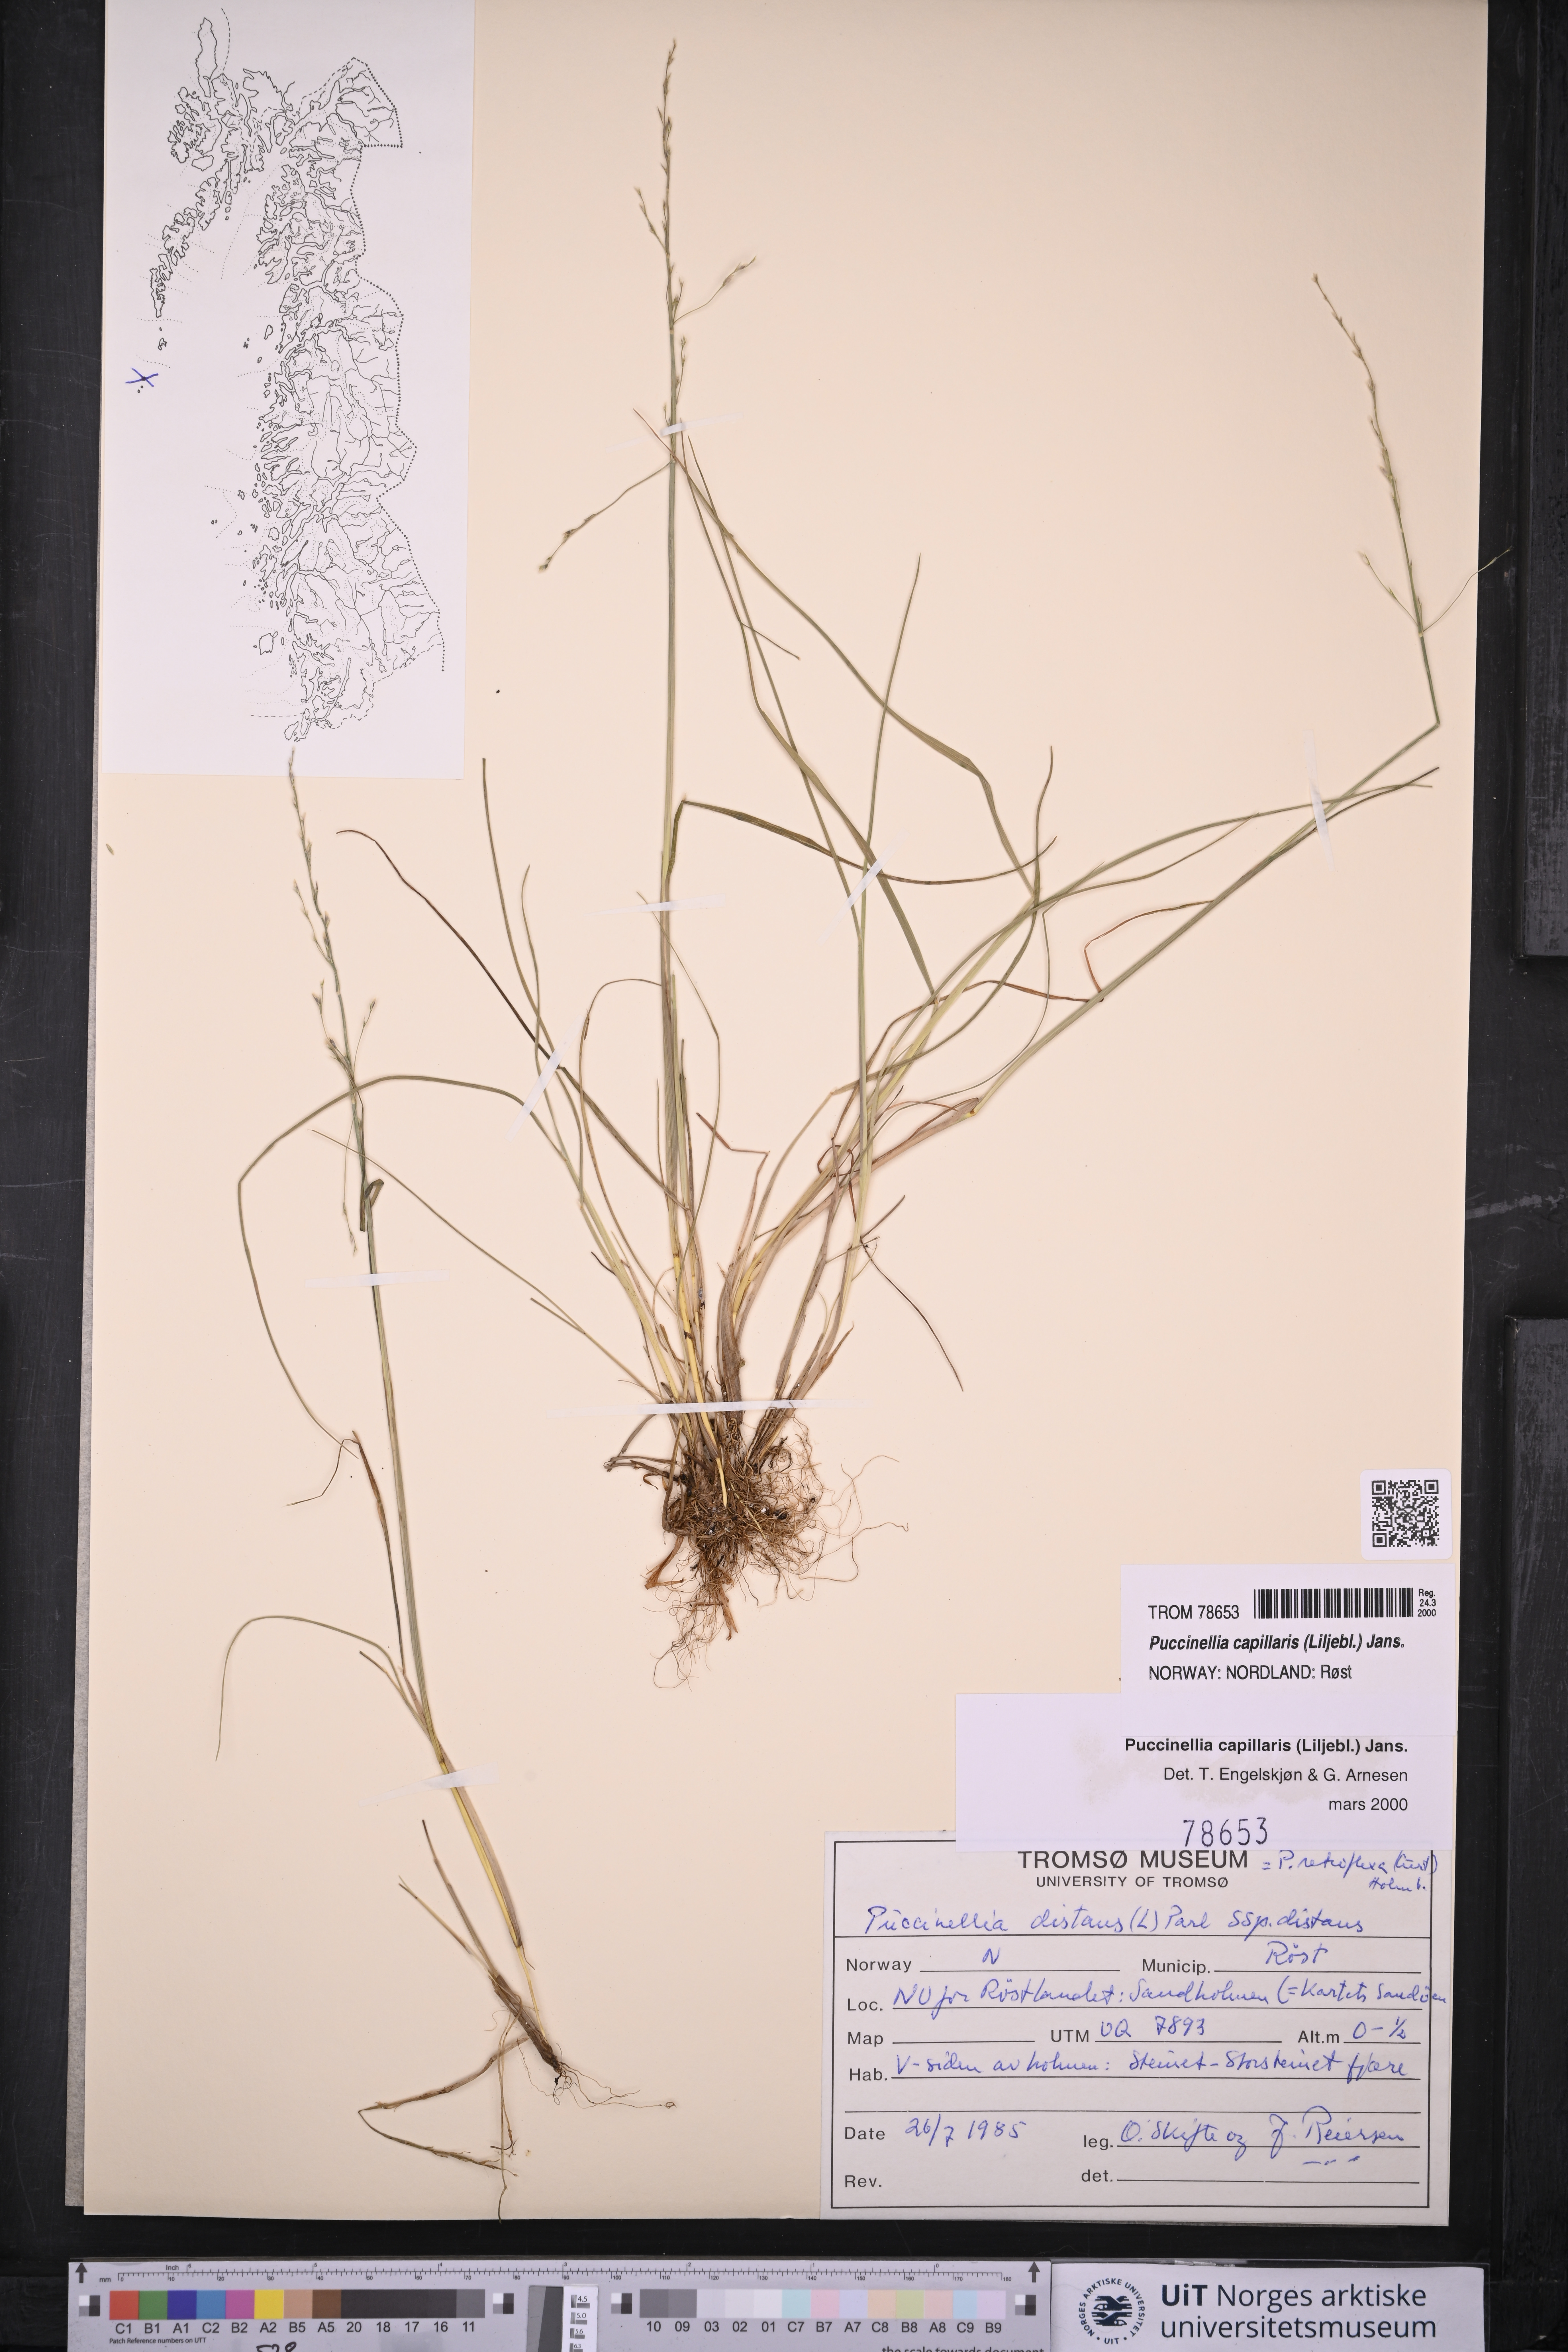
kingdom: Plantae
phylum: Tracheophyta
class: Liliopsida
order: Poales
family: Poaceae
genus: Puccinellia
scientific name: Puccinellia distans
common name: Weeping alkaligrass
